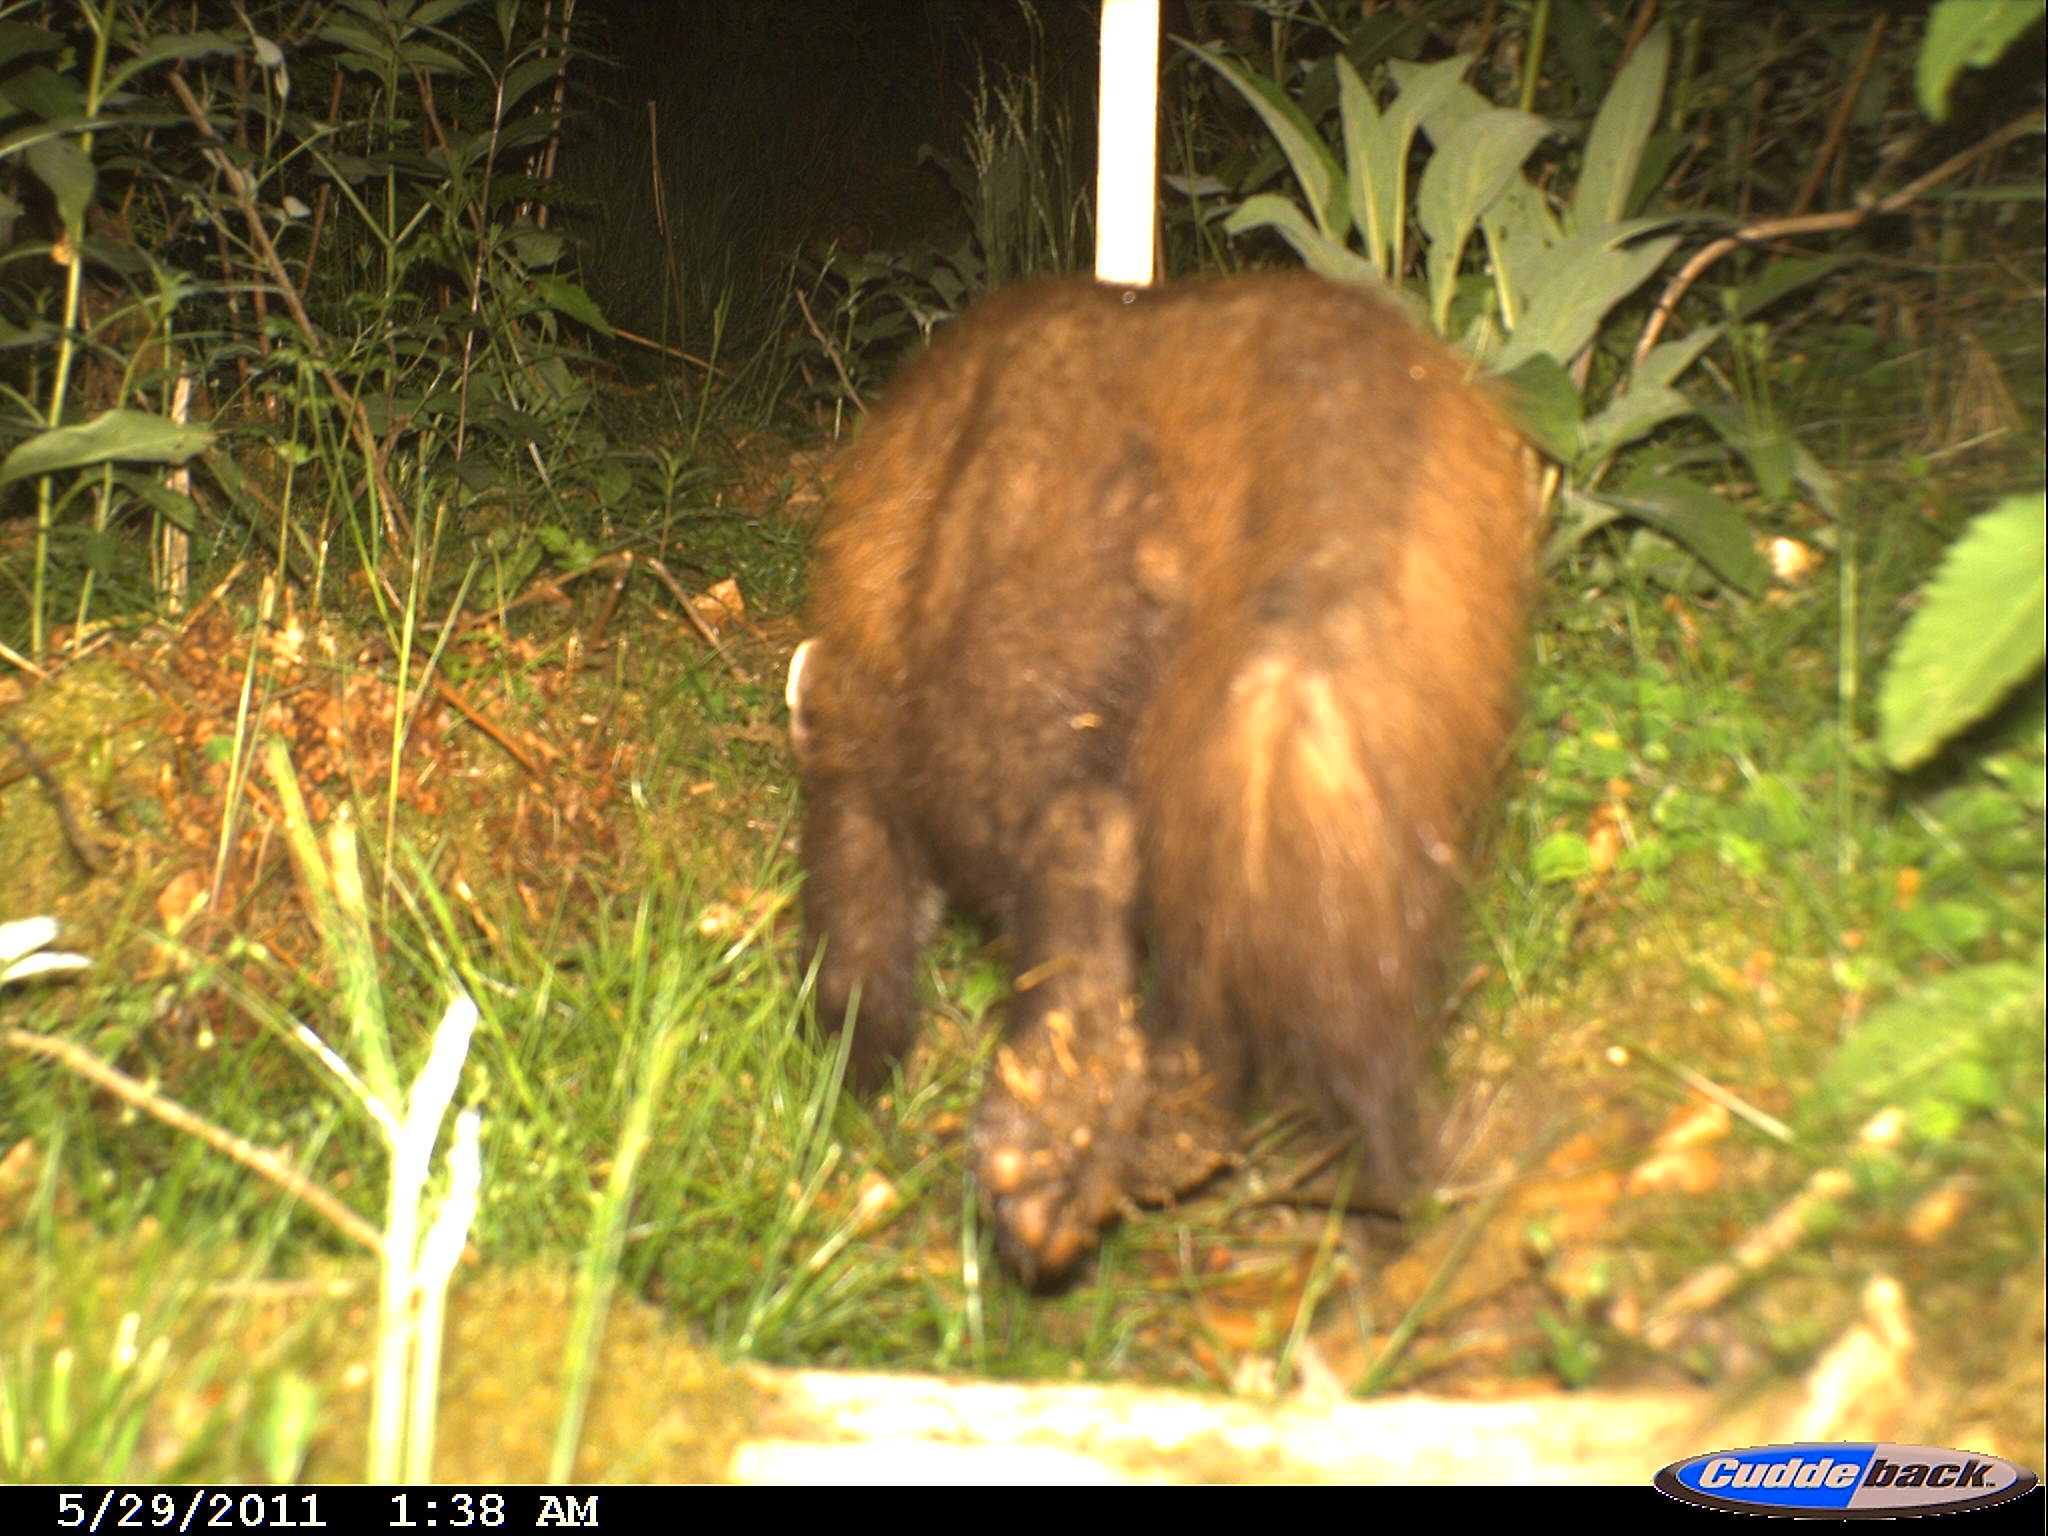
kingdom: Animalia
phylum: Chordata
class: Mammalia
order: Carnivora
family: Mustelidae
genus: Martes
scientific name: Martes martes
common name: European pine marten
